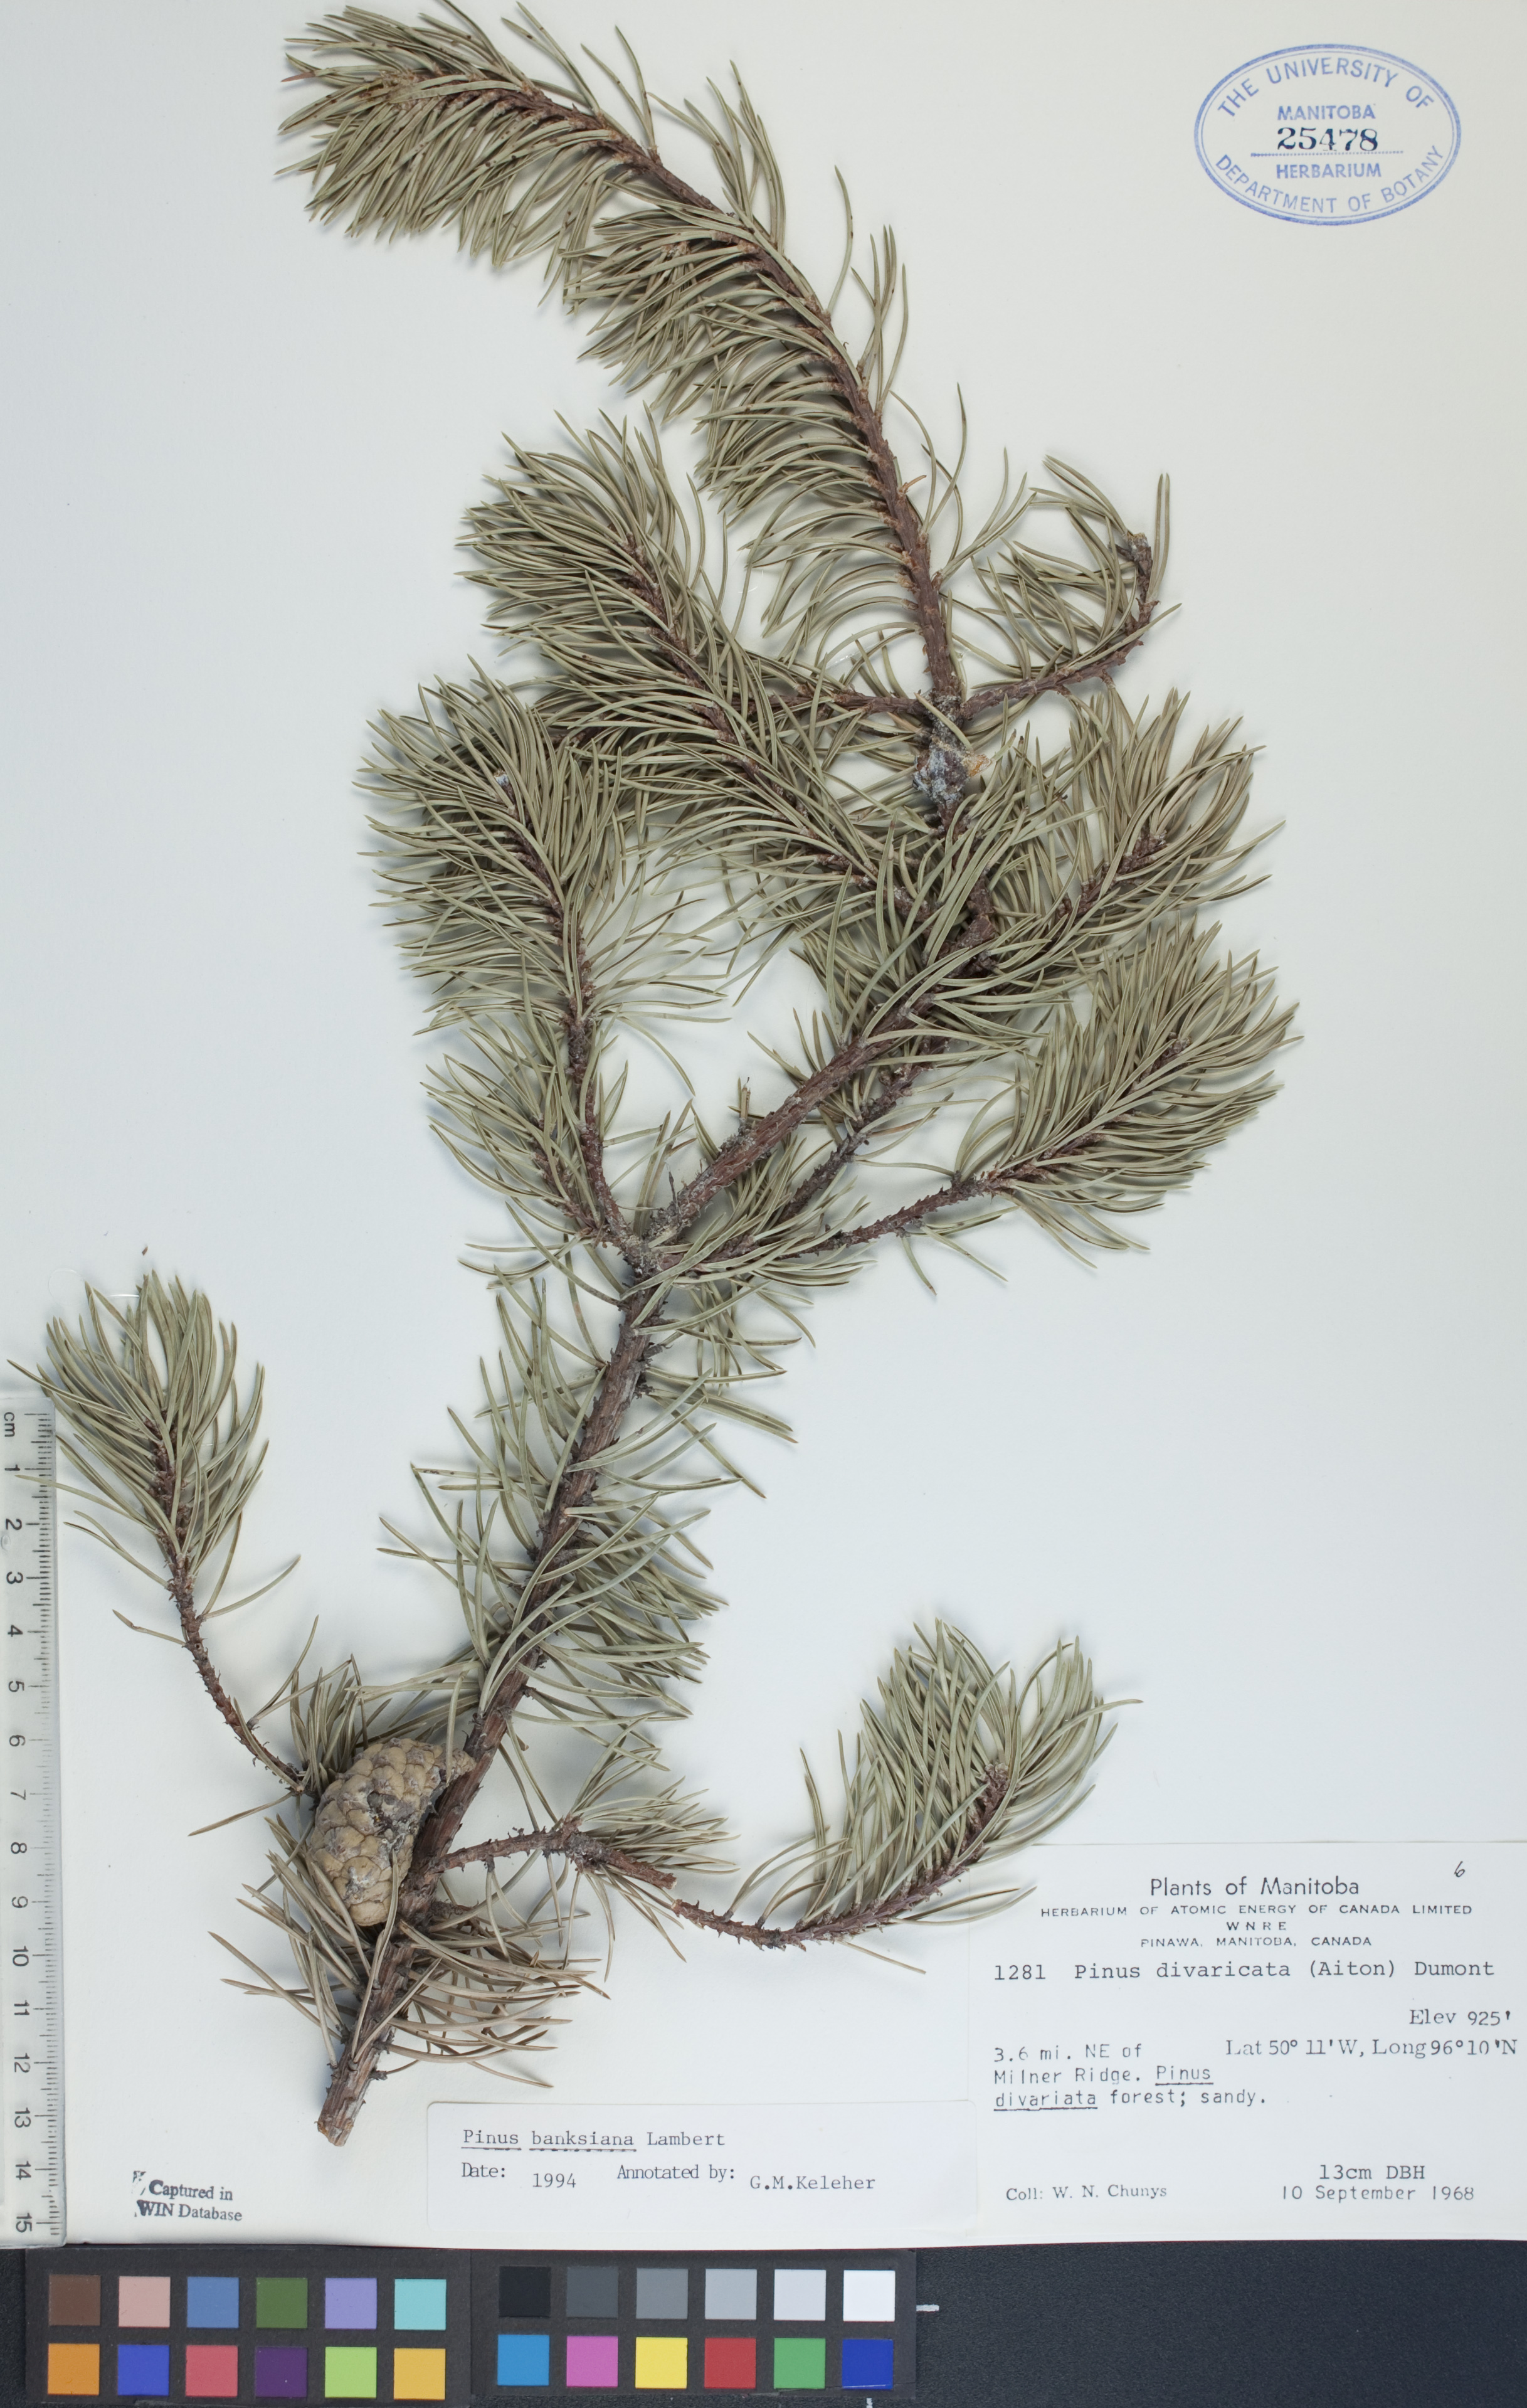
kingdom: Plantae
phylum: Tracheophyta
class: Pinopsida
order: Pinales
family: Pinaceae
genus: Pinus
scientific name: Pinus banksiana
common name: Jack pine
